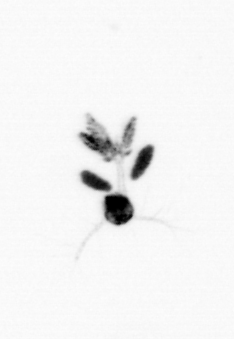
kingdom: Animalia
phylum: Arthropoda
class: Copepoda
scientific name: Copepoda
